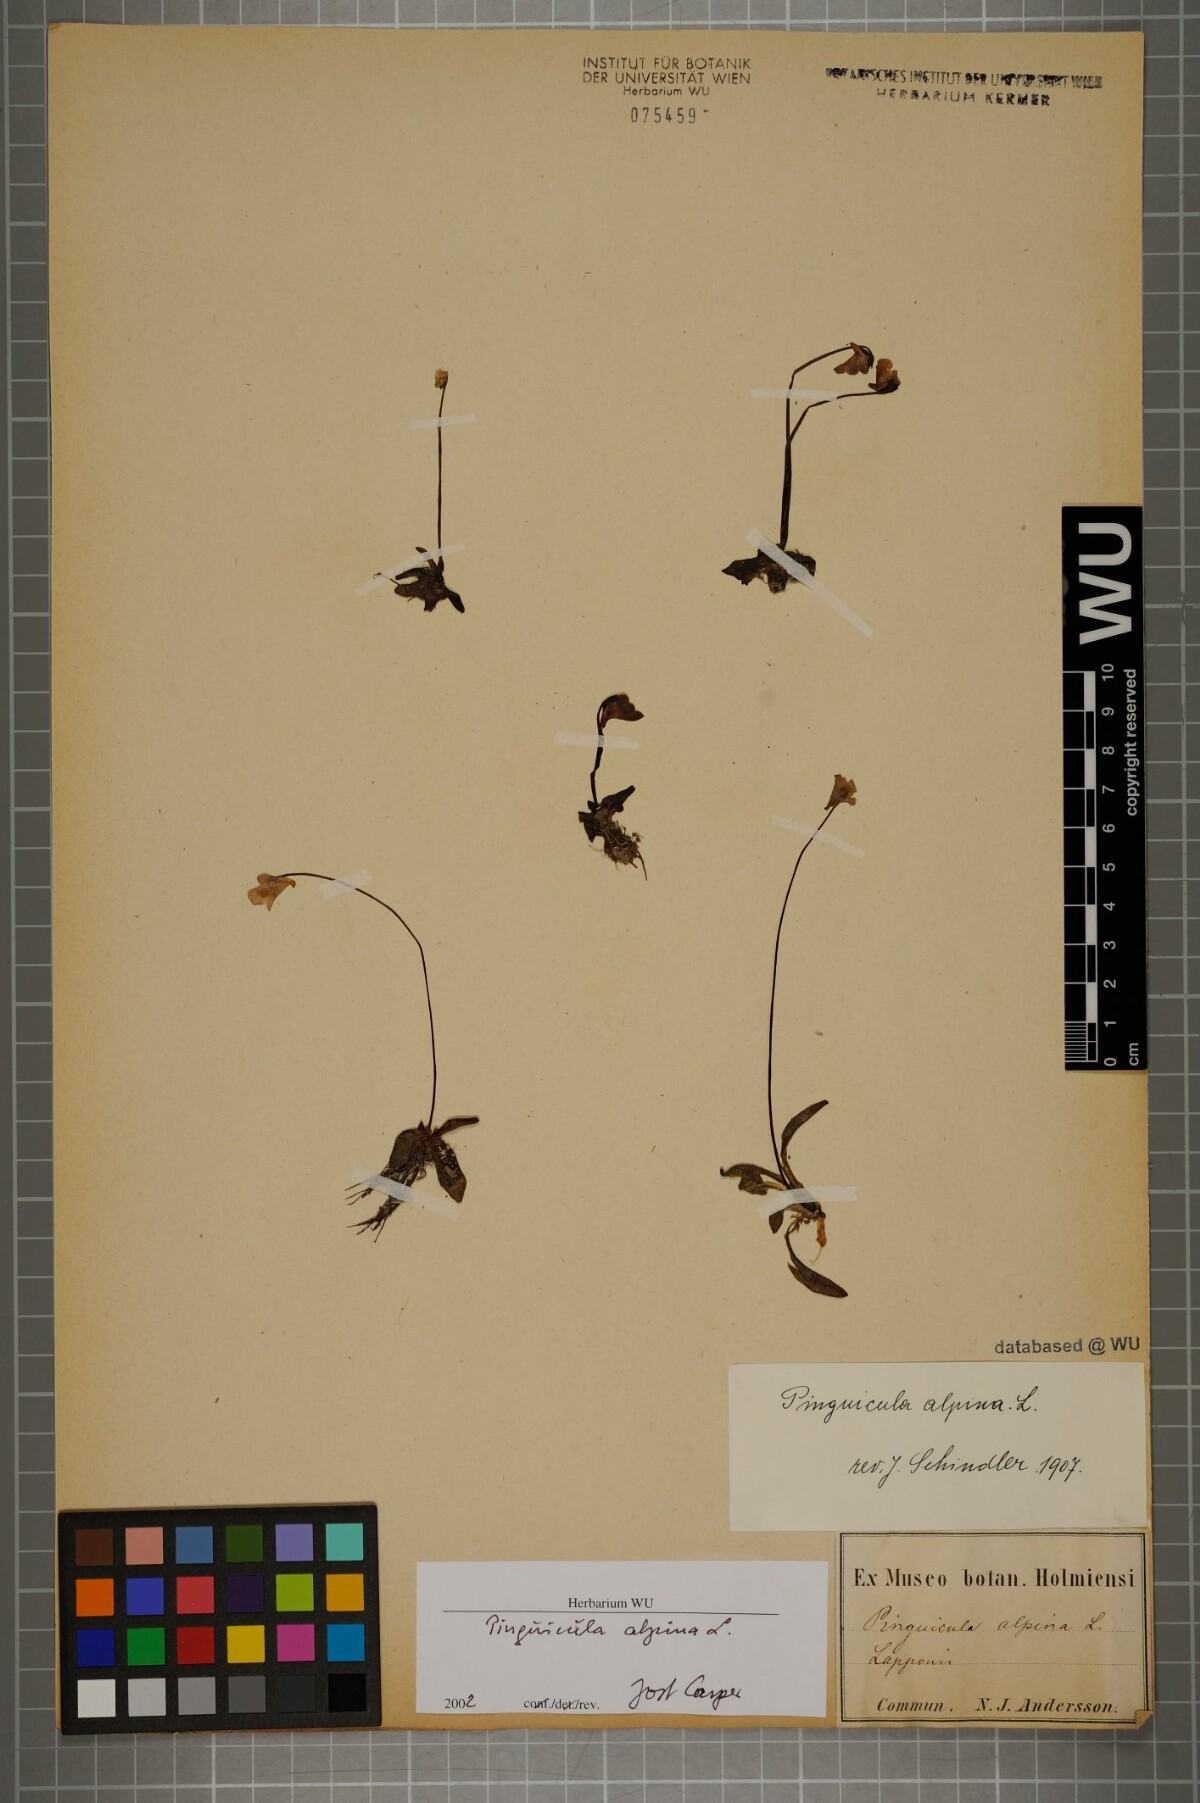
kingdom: Plantae
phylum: Tracheophyta
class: Magnoliopsida
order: Lamiales
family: Lentibulariaceae
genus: Pinguicula
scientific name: Pinguicula alpina
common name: Alpine butterwort
